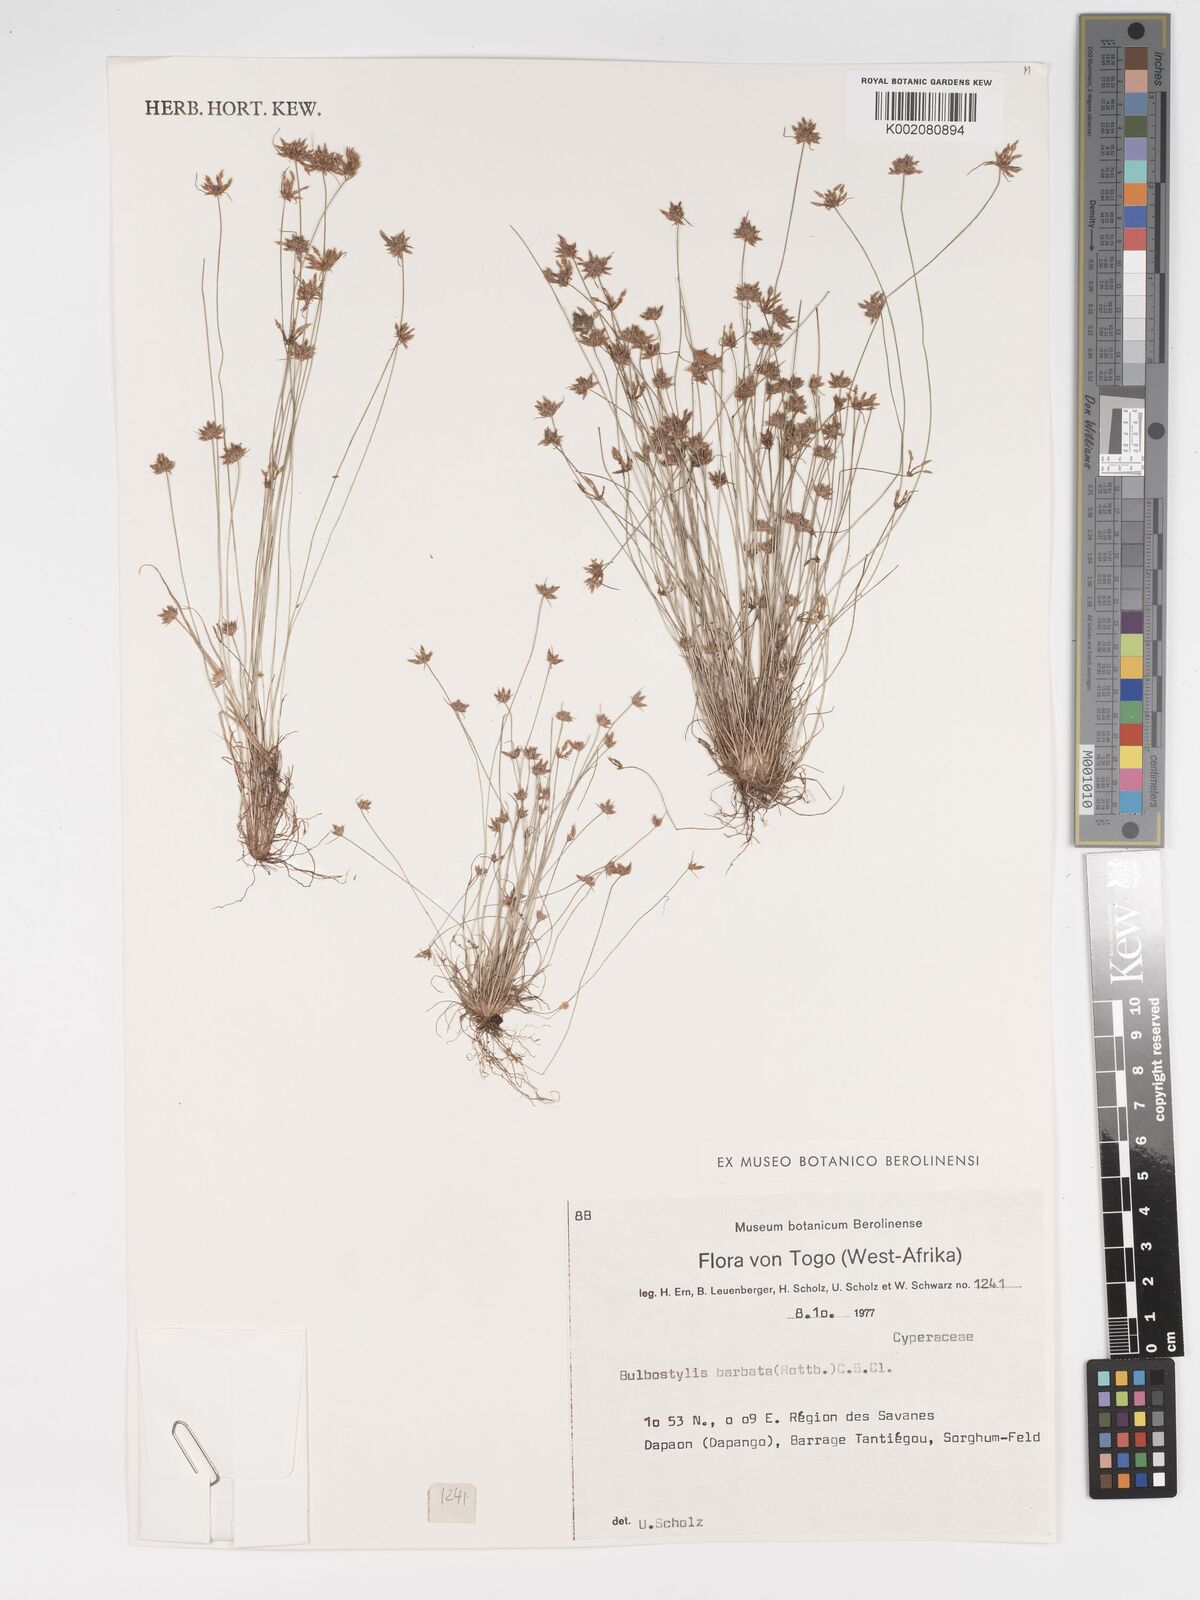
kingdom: Plantae
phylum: Tracheophyta
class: Liliopsida
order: Poales
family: Cyperaceae
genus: Bulbostylis
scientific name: Bulbostylis barbata
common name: Watergrass
